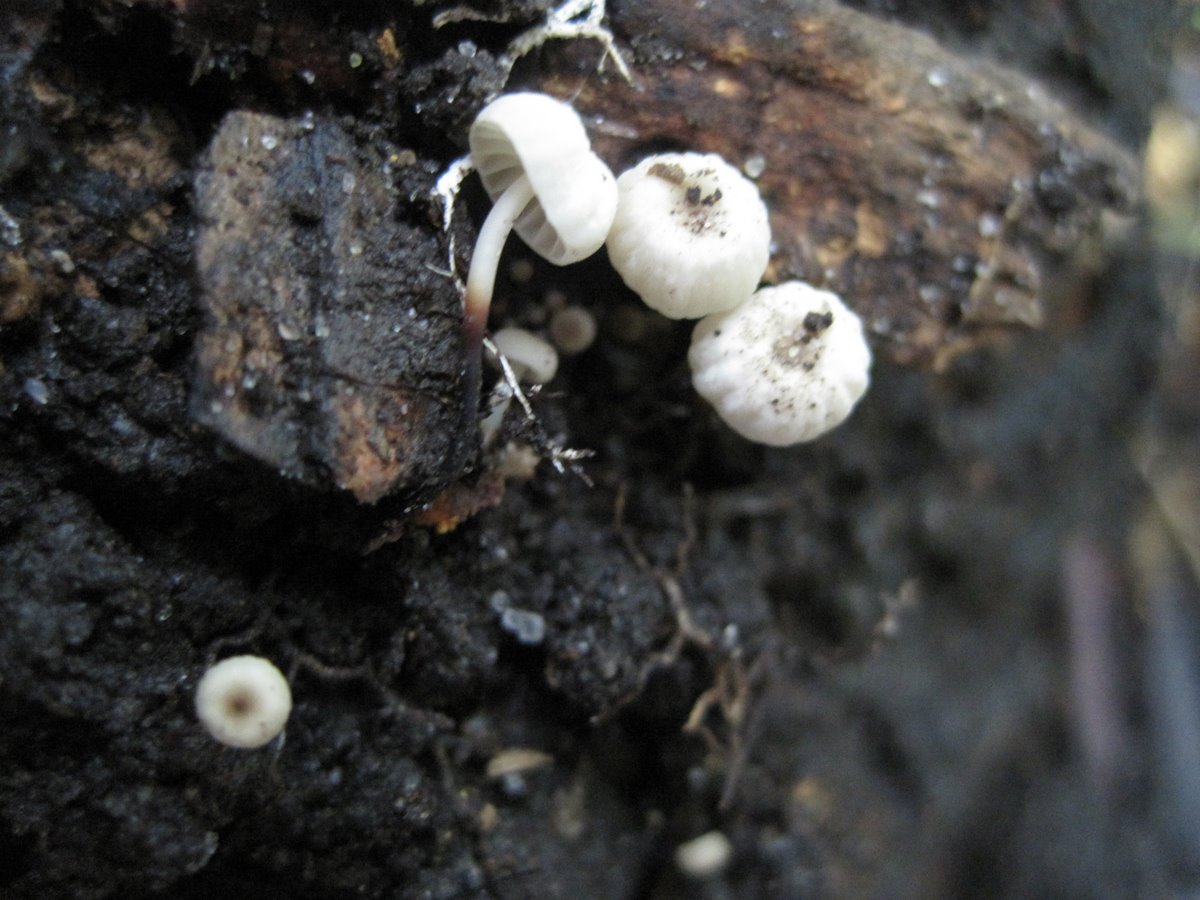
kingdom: Fungi
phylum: Basidiomycota
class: Agaricomycetes
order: Agaricales
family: Marasmiaceae
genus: Marasmius
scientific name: Marasmius rotula
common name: hjul-bruskhat
